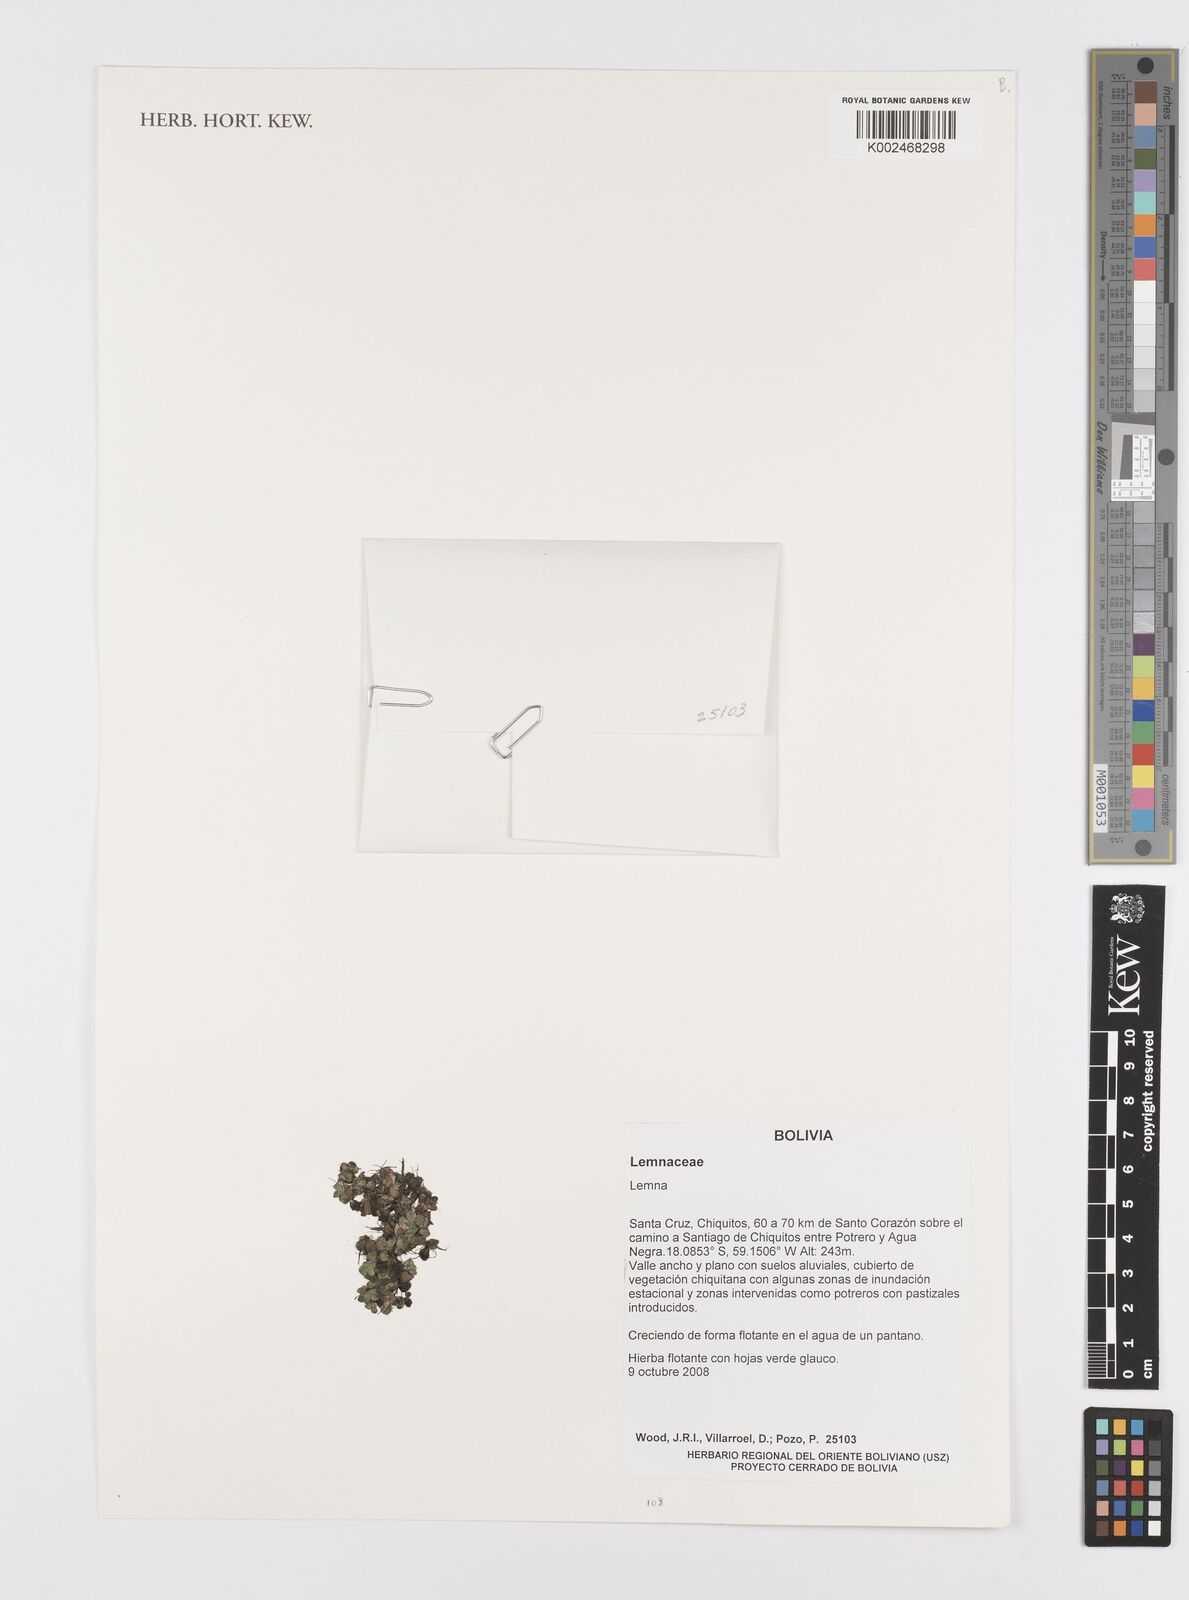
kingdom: Plantae
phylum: Tracheophyta
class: Liliopsida
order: Alismatales
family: Araceae
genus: Lemna
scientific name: Lemna
